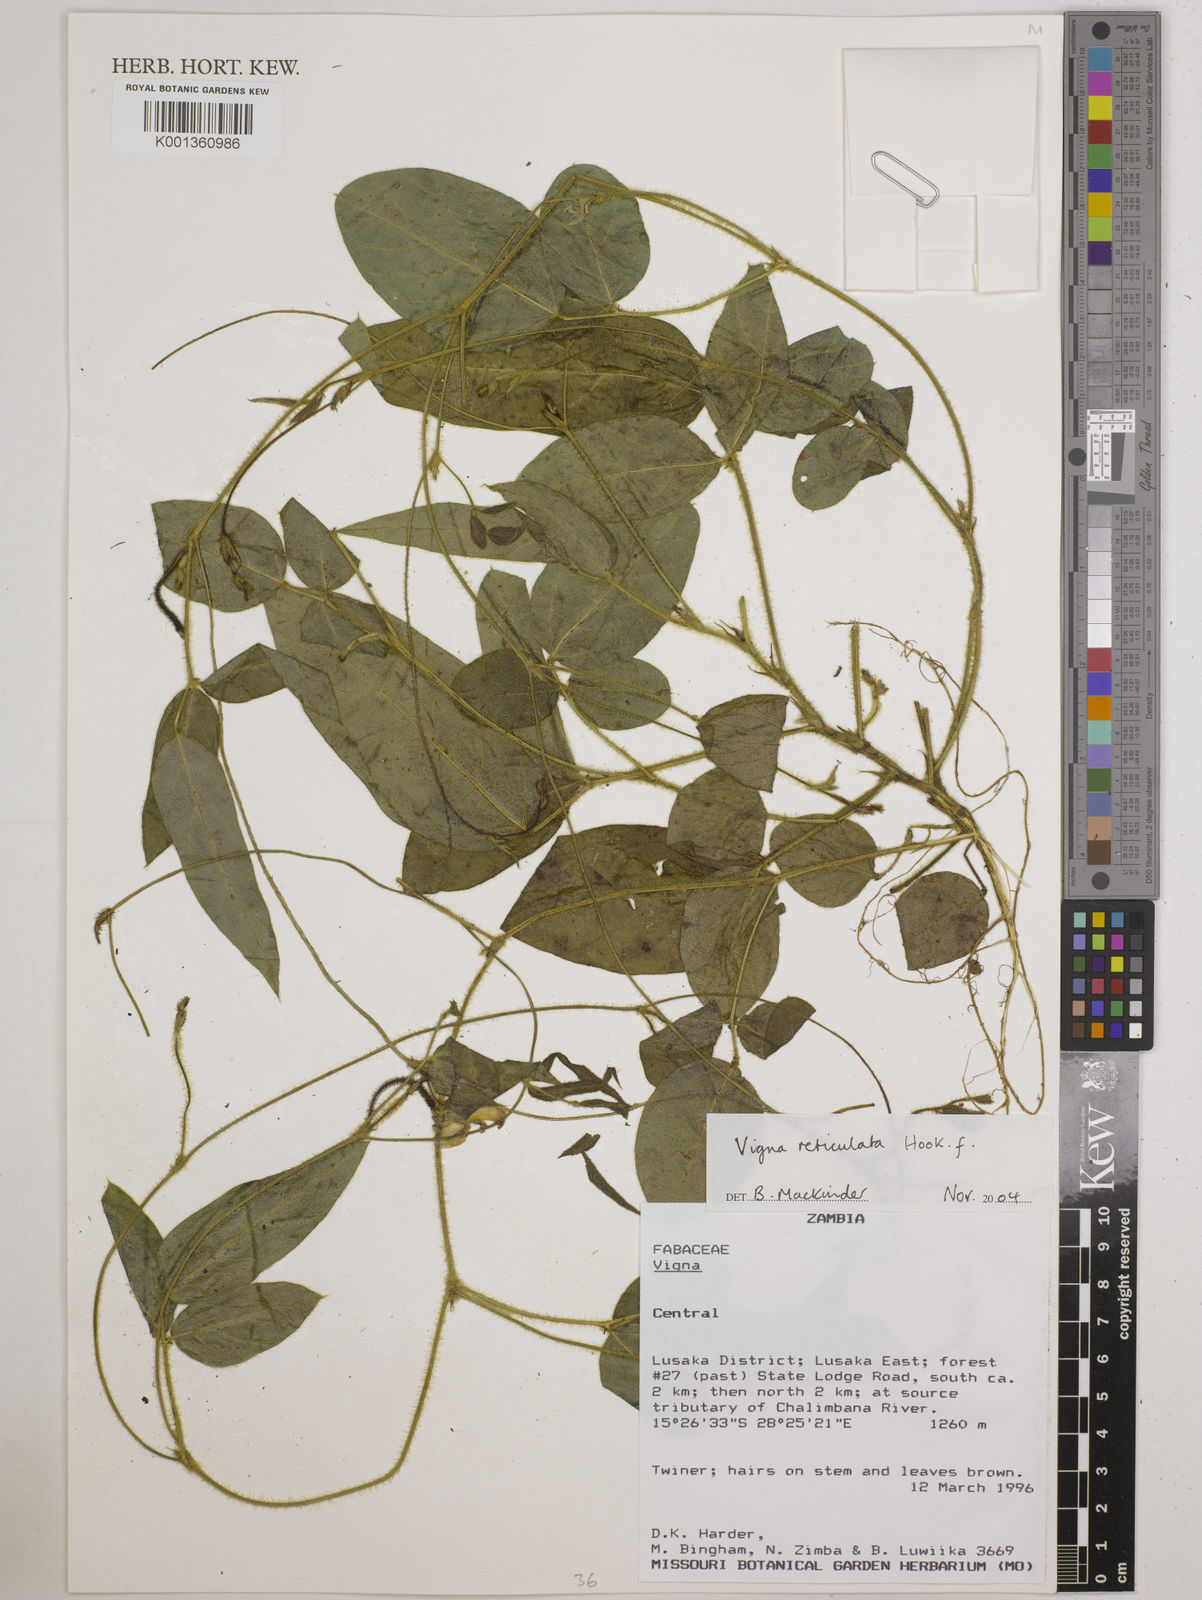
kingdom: Plantae
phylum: Tracheophyta
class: Magnoliopsida
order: Fabales
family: Fabaceae
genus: Vigna
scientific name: Vigna reticulata
